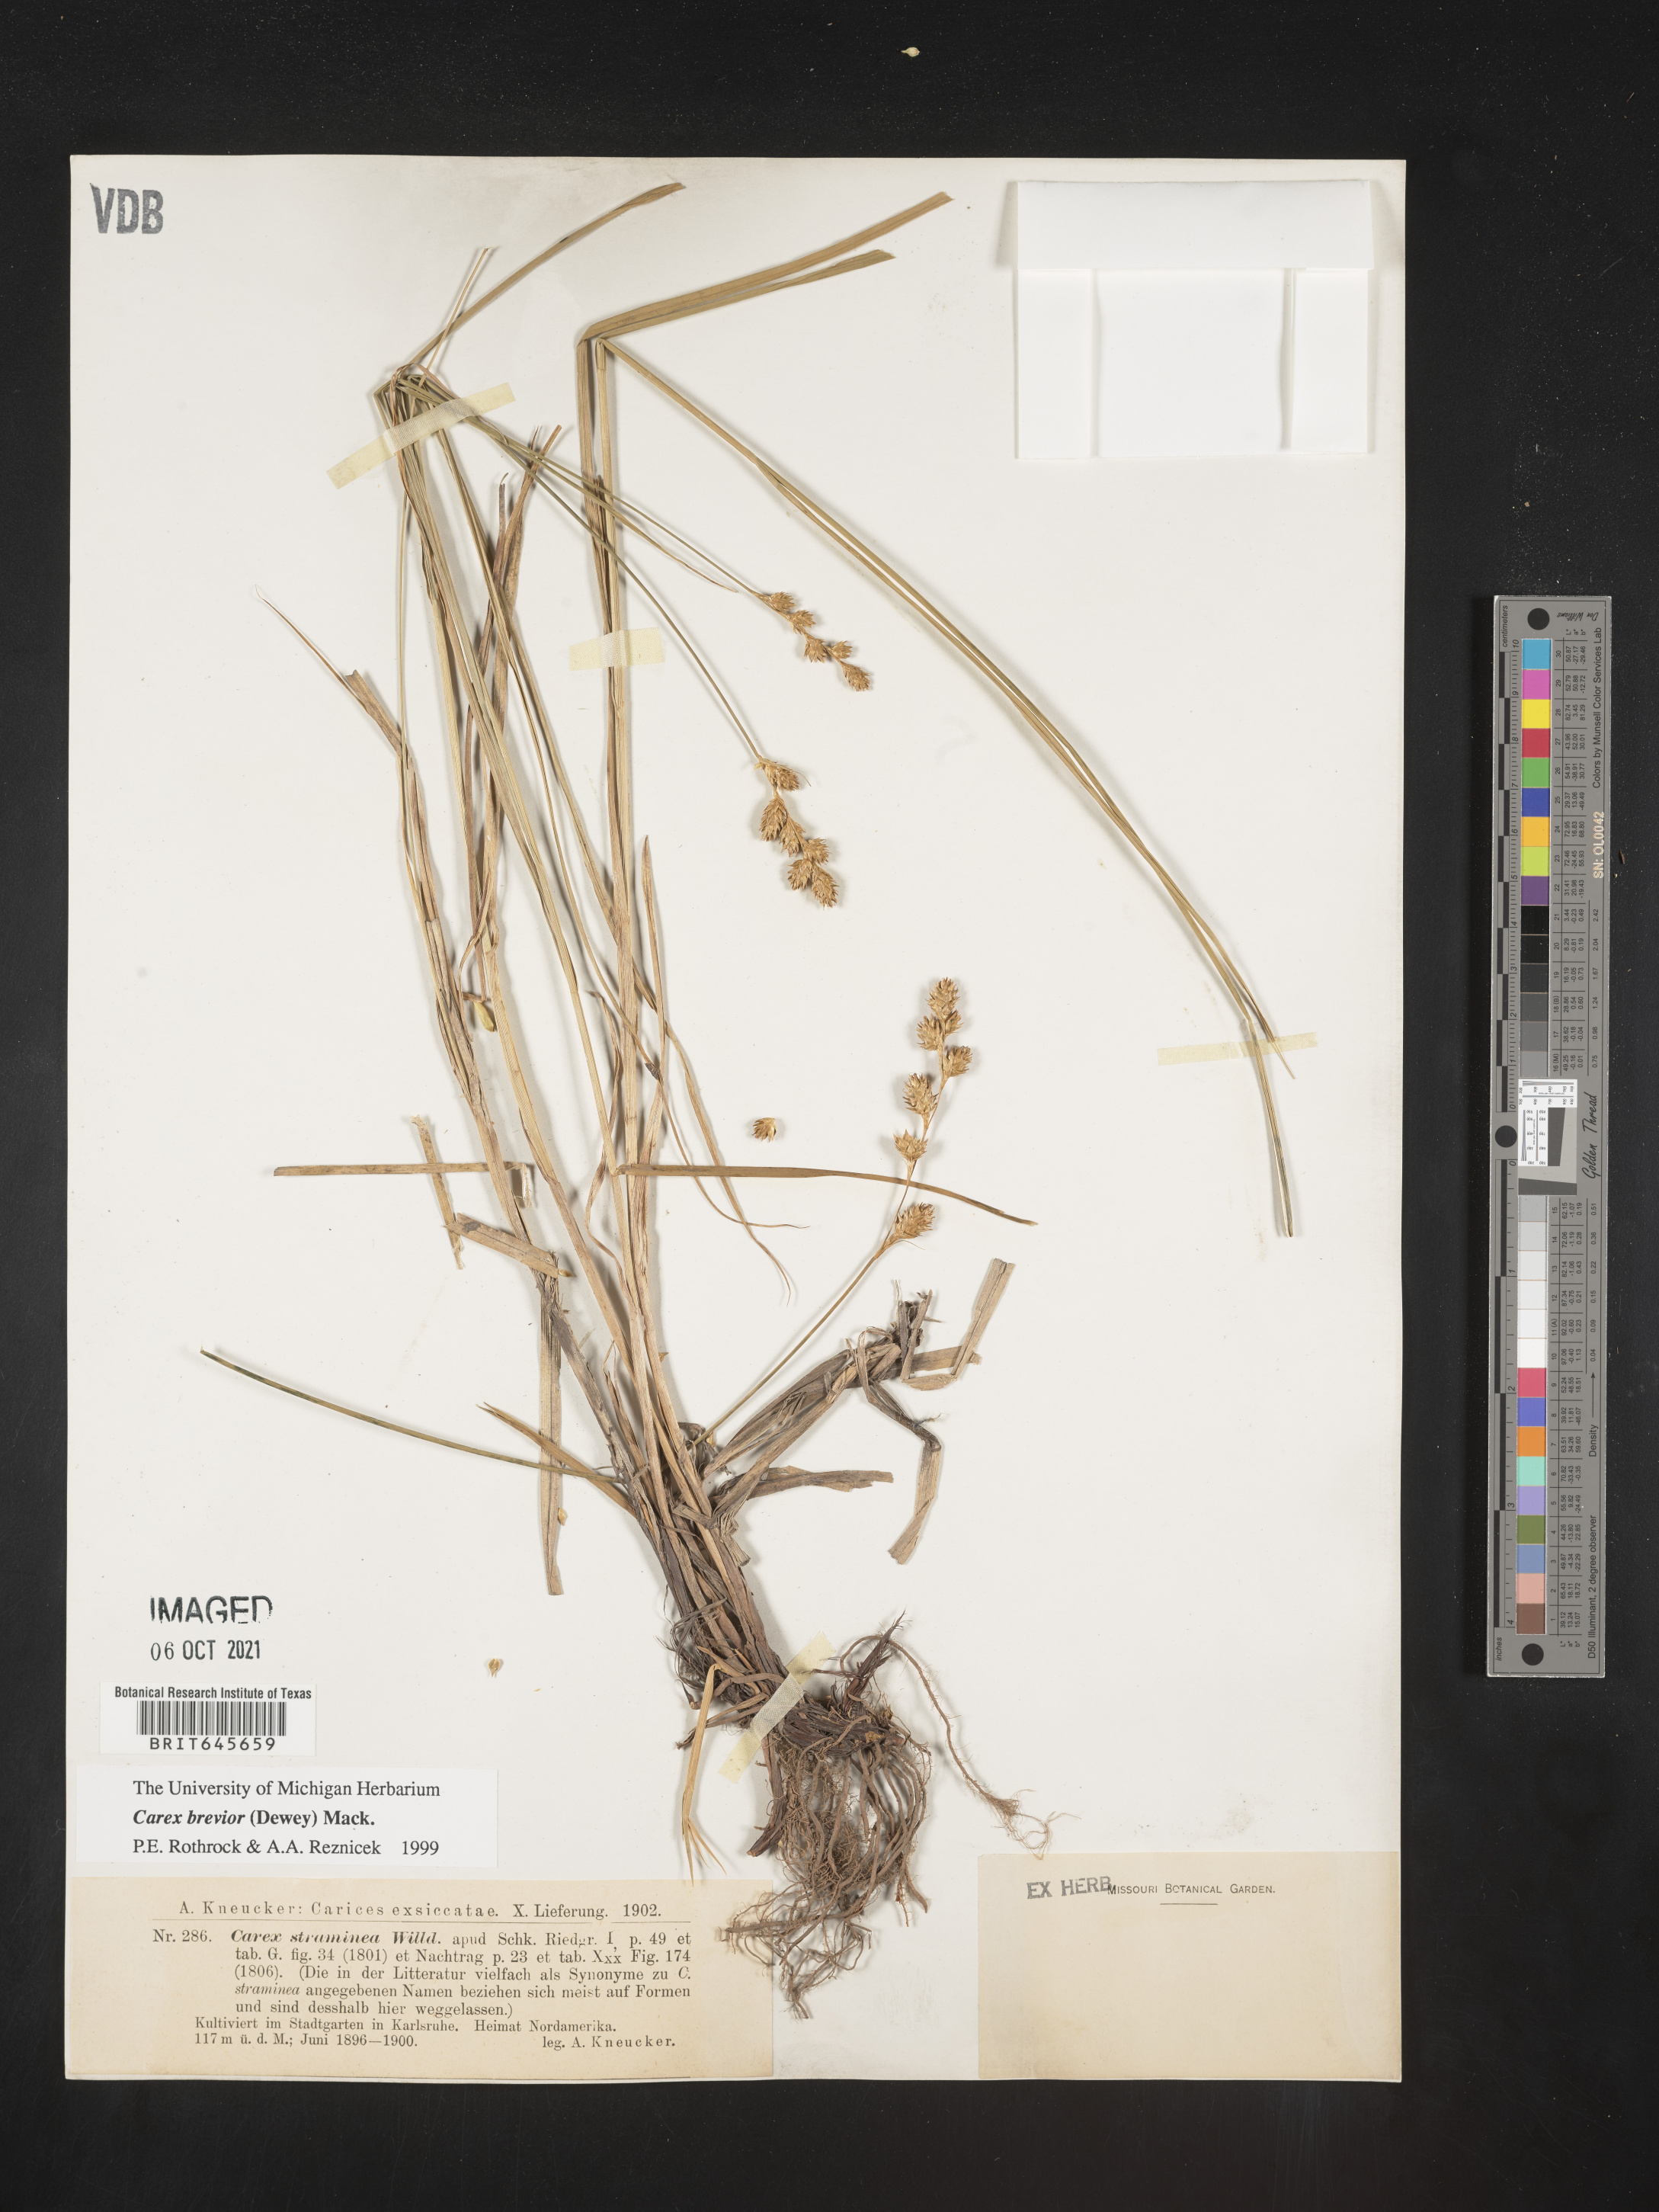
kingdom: Plantae
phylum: Tracheophyta
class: Liliopsida
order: Poales
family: Cyperaceae
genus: Carex
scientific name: Carex brevior
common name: Brevior sedge
